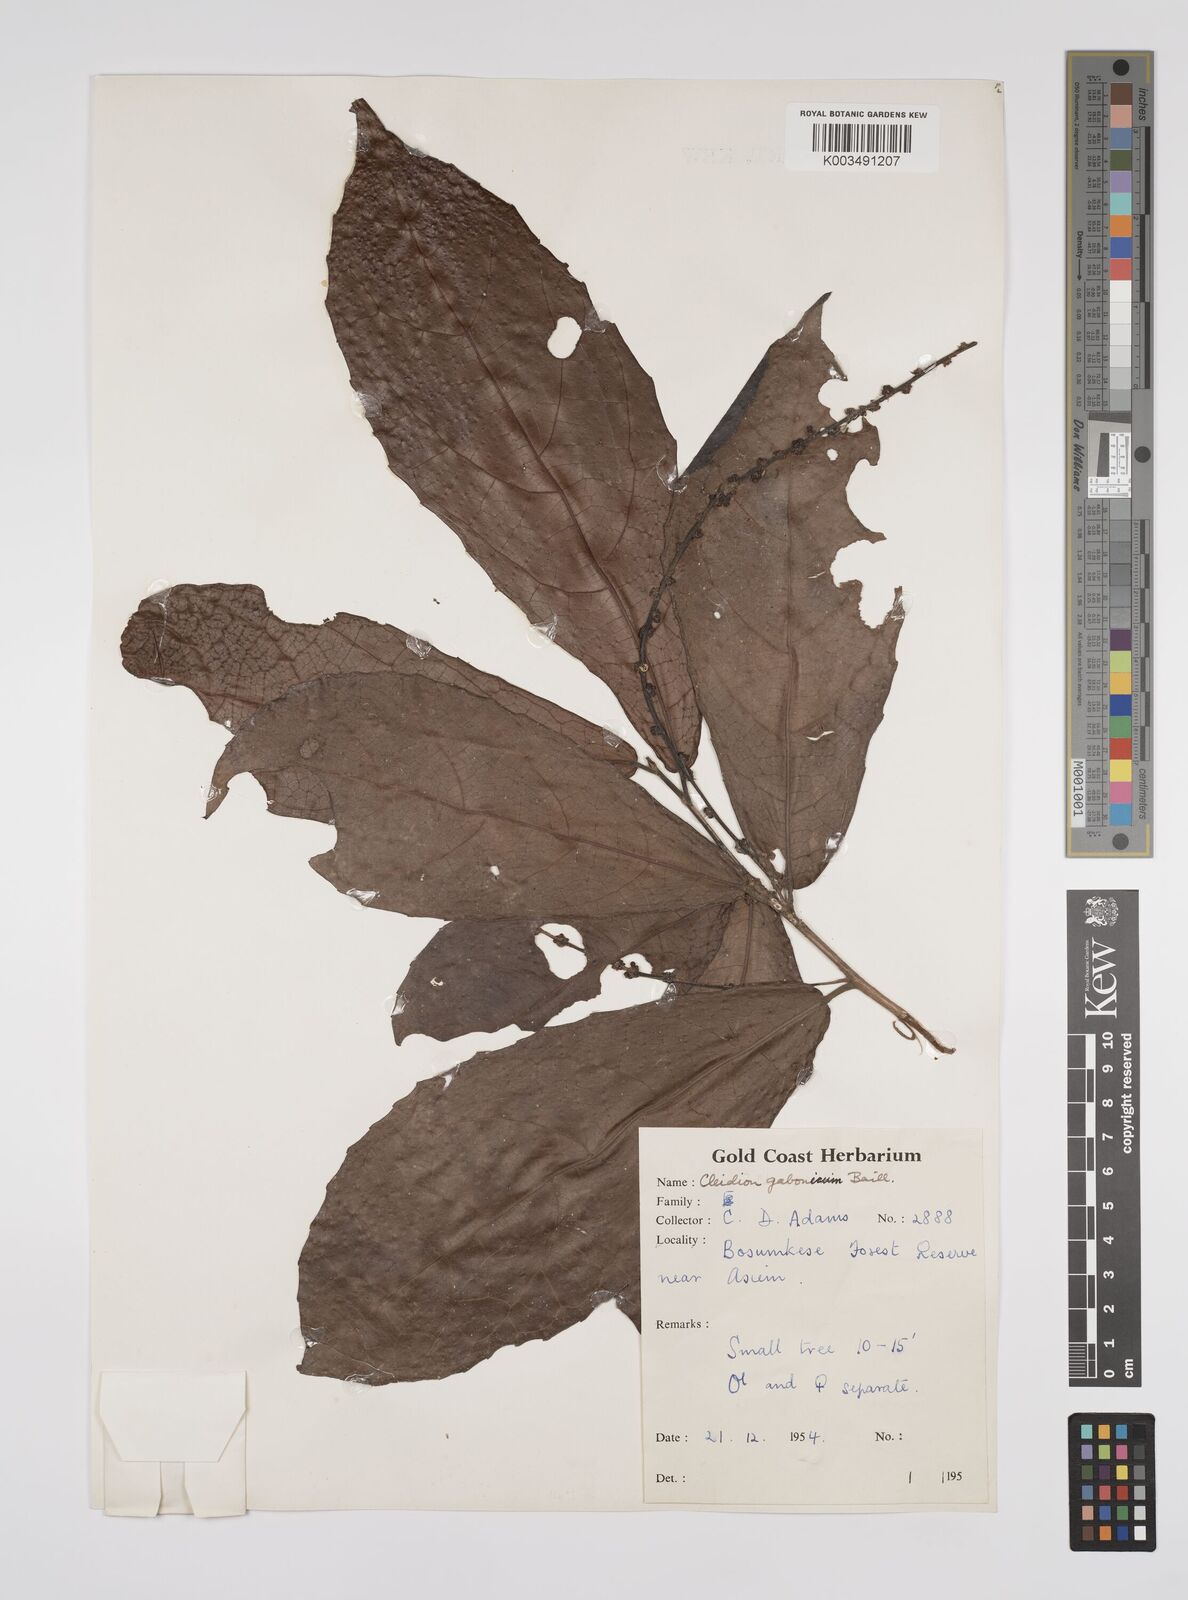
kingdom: Plantae
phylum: Tracheophyta
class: Magnoliopsida
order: Malpighiales
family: Euphorbiaceae
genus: Cleidion
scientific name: Cleidion gabonicum
